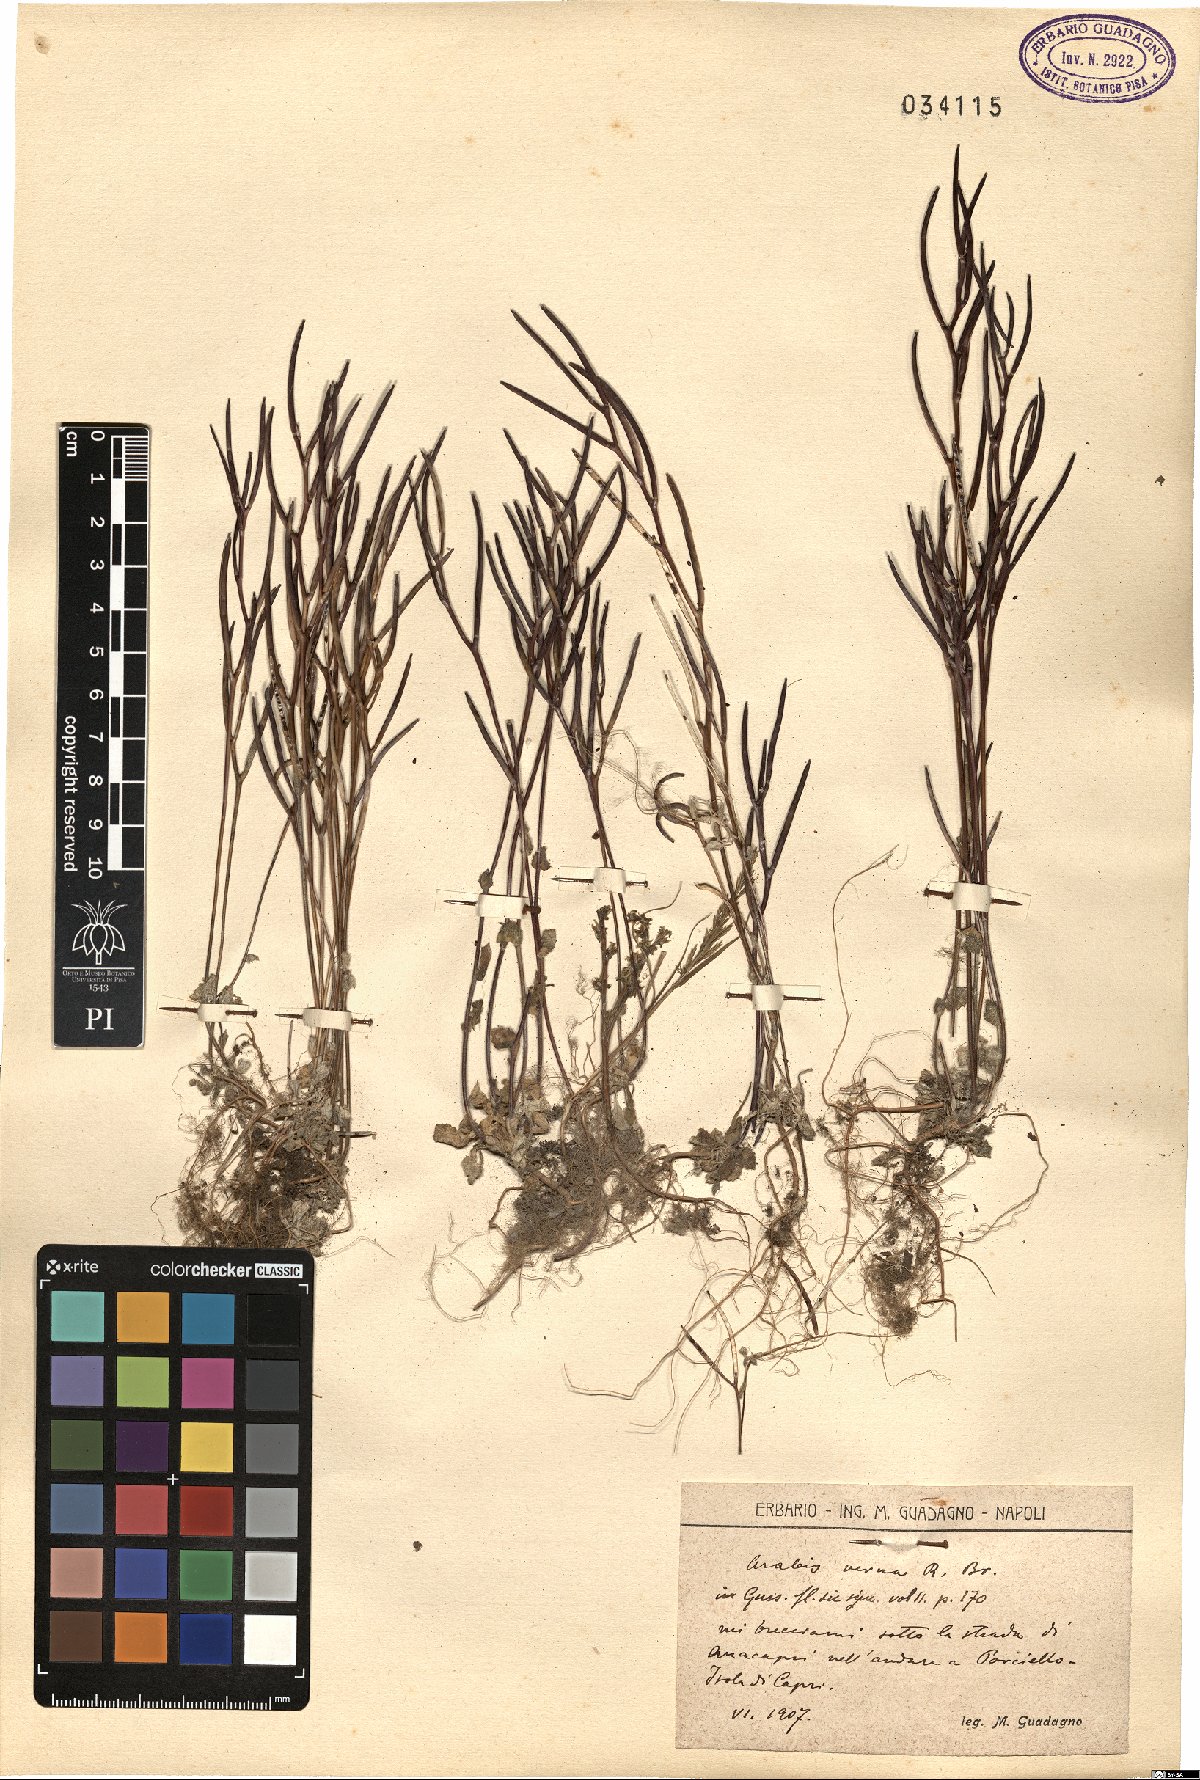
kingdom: Plantae
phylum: Tracheophyta
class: Magnoliopsida
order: Brassicales
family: Brassicaceae
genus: Arabis
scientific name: Arabis verna
